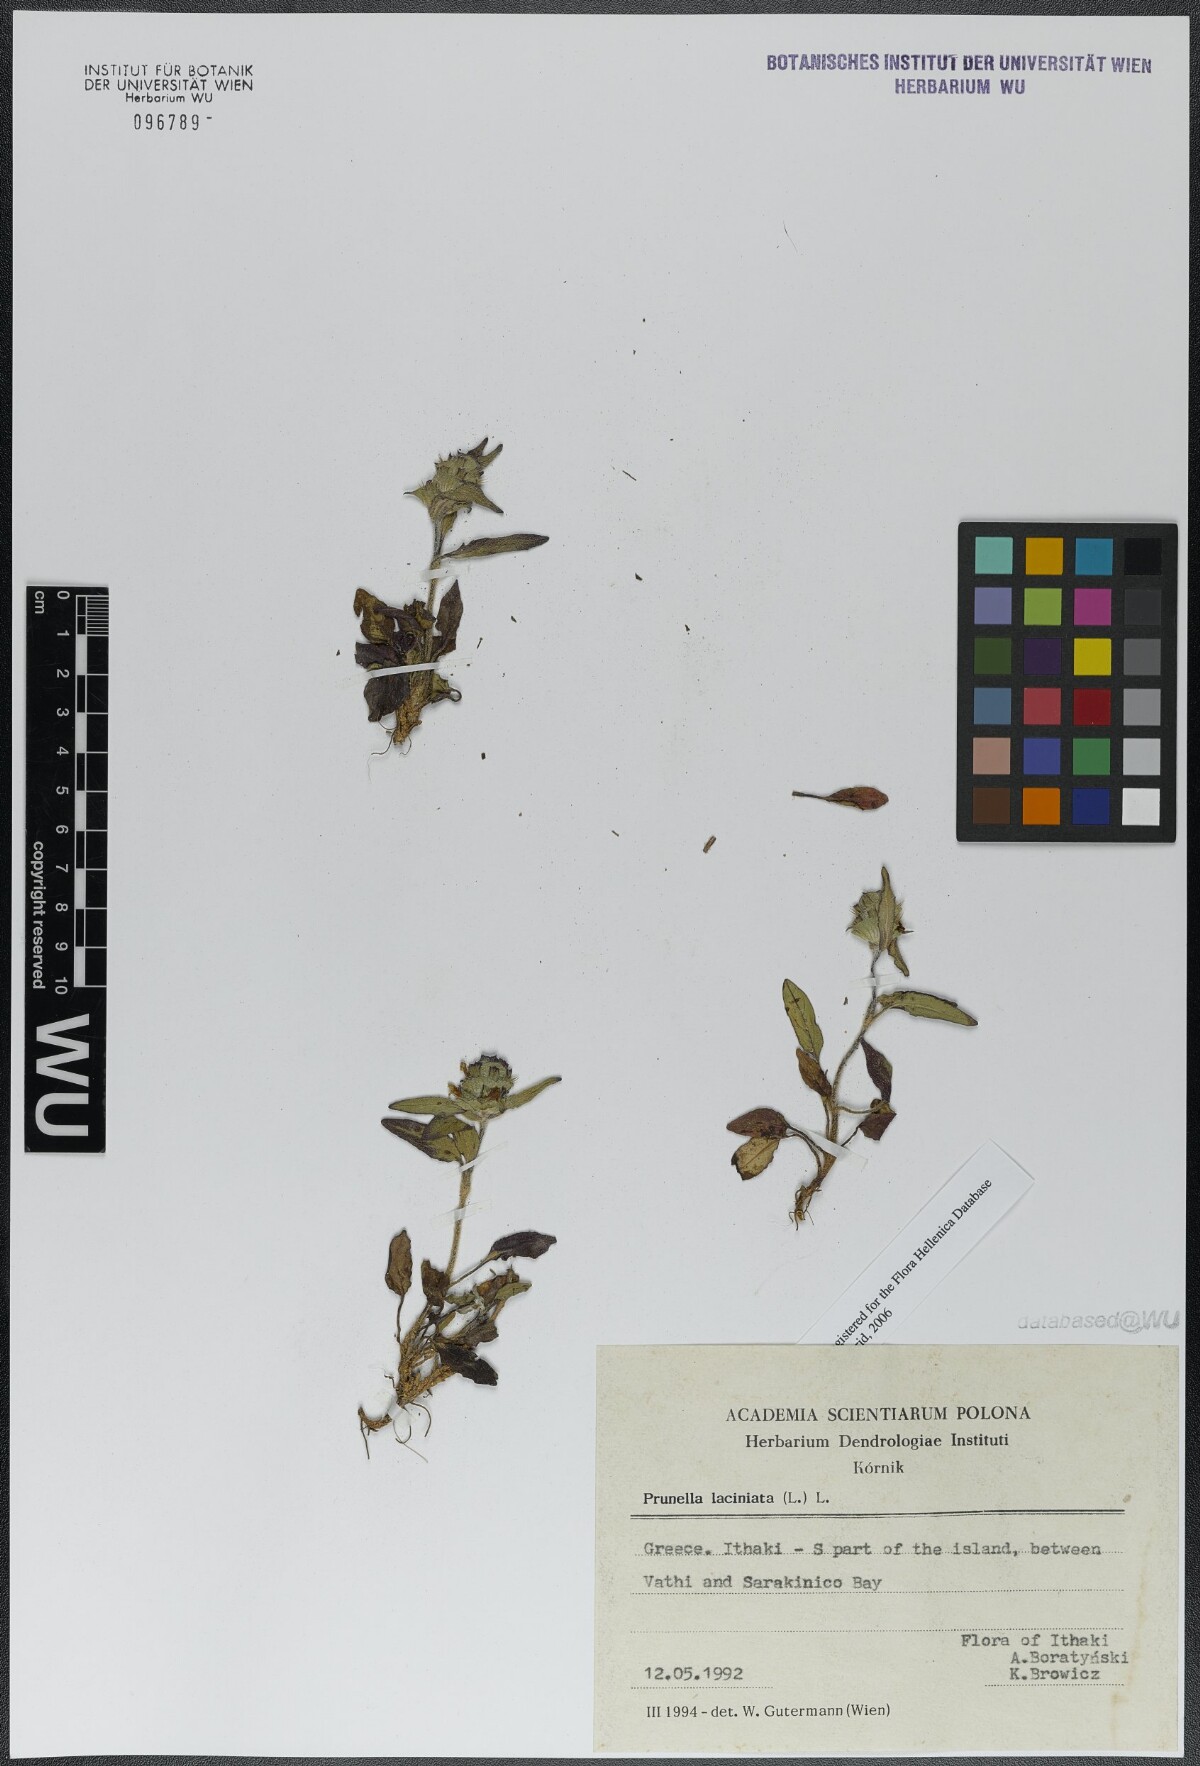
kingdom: Plantae
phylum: Tracheophyta
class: Magnoliopsida
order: Lamiales
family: Lamiaceae
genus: Prunella
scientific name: Prunella laciniata
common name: Cut-leaved selfheal
